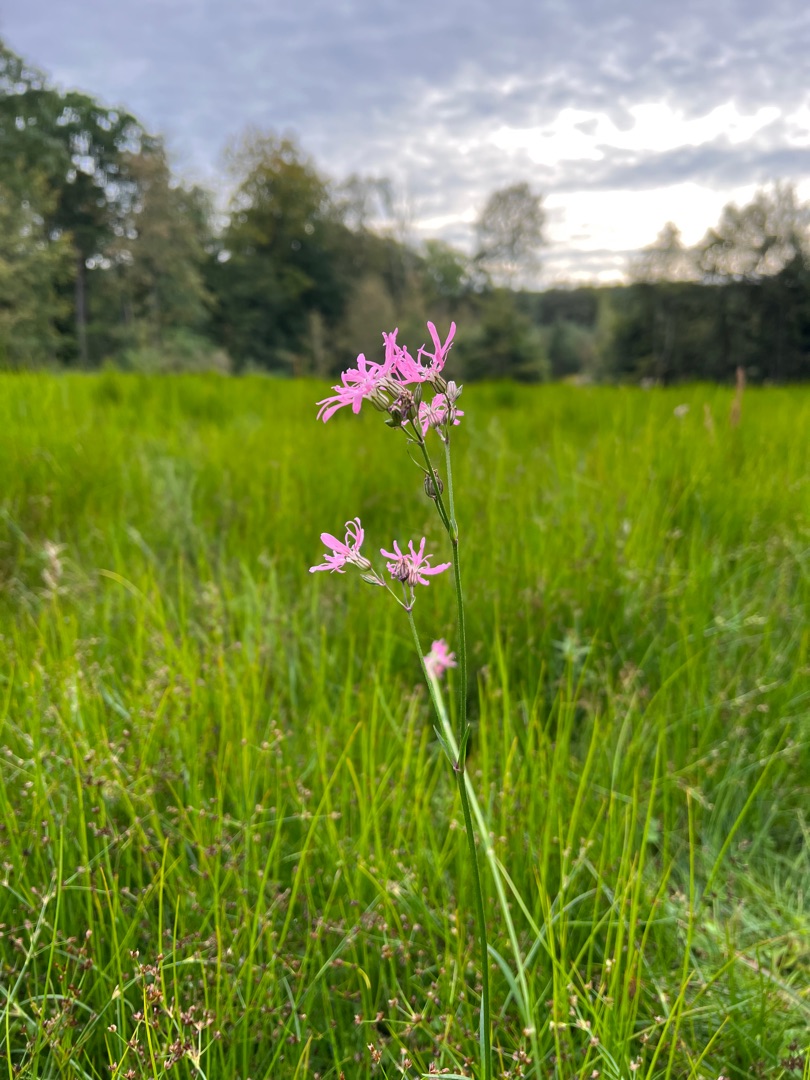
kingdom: Plantae
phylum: Tracheophyta
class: Magnoliopsida
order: Caryophyllales
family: Caryophyllaceae
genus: Silene
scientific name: Silene flos-cuculi
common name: Trævlekrone
